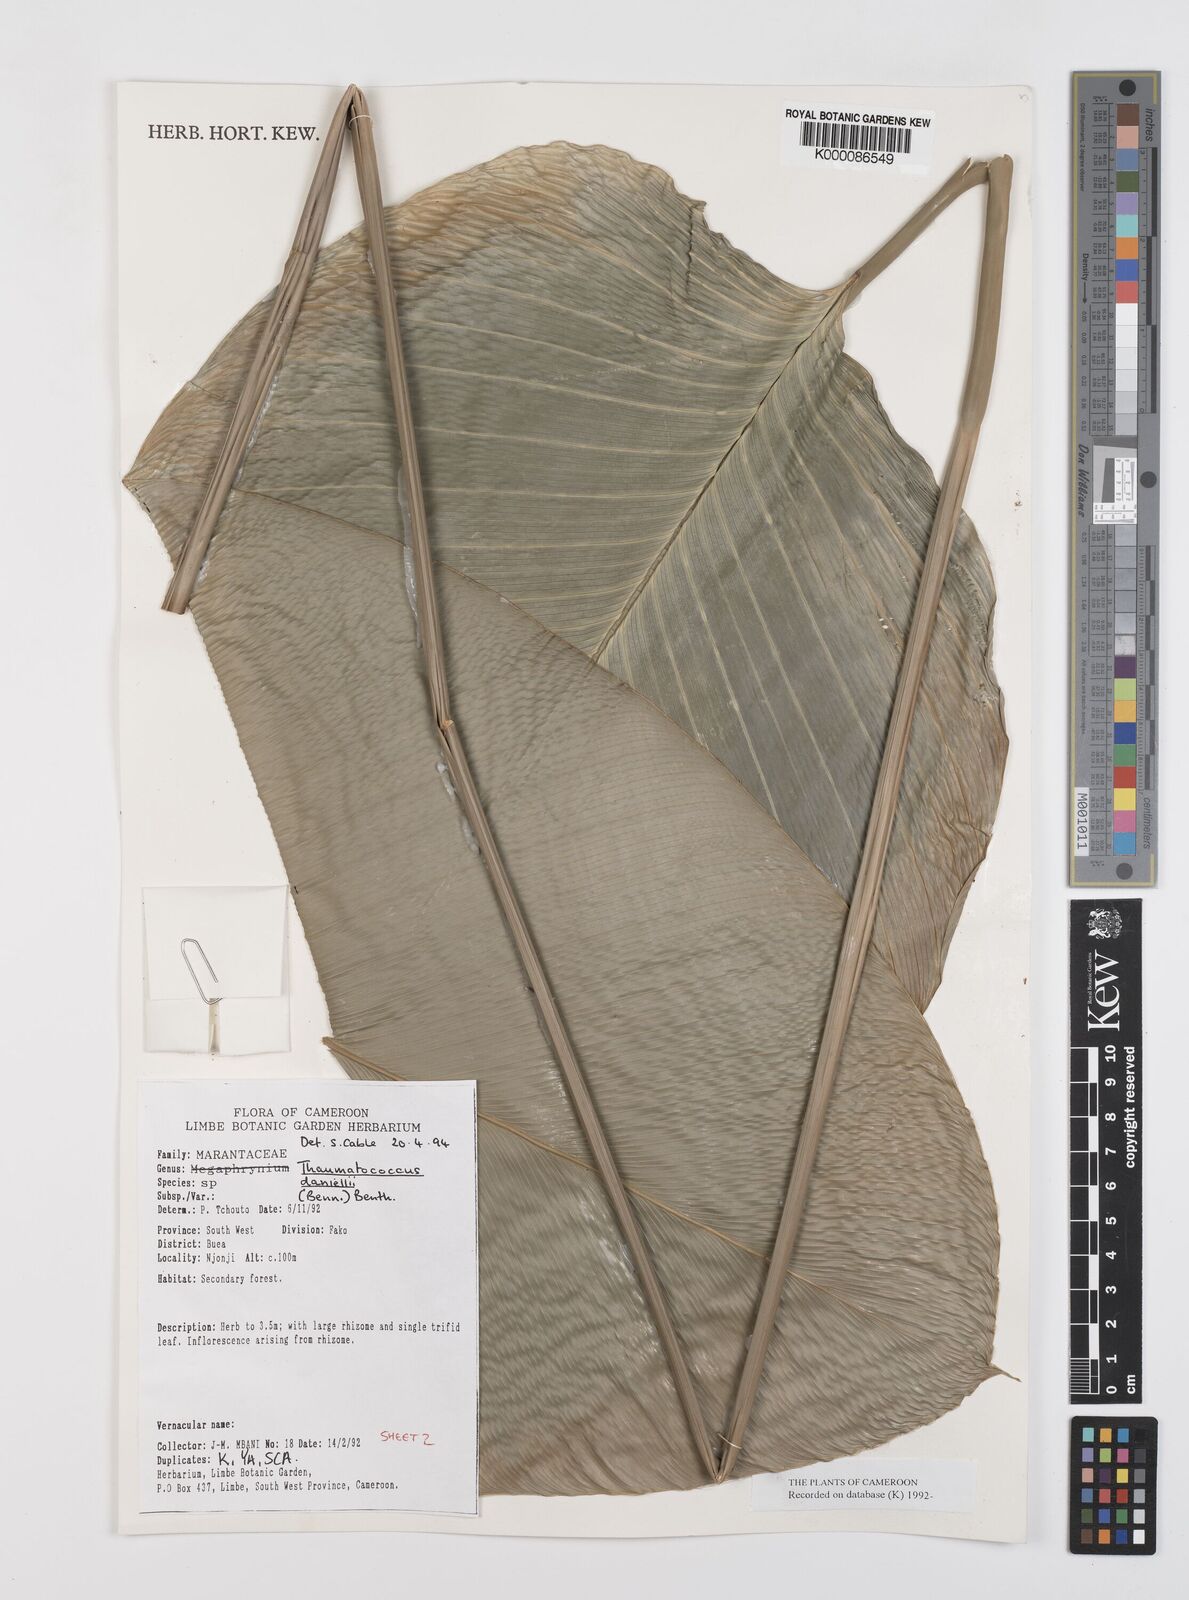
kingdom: Plantae
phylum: Tracheophyta
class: Liliopsida
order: Zingiberales
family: Marantaceae
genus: Thaumatococcus
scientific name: Thaumatococcus
